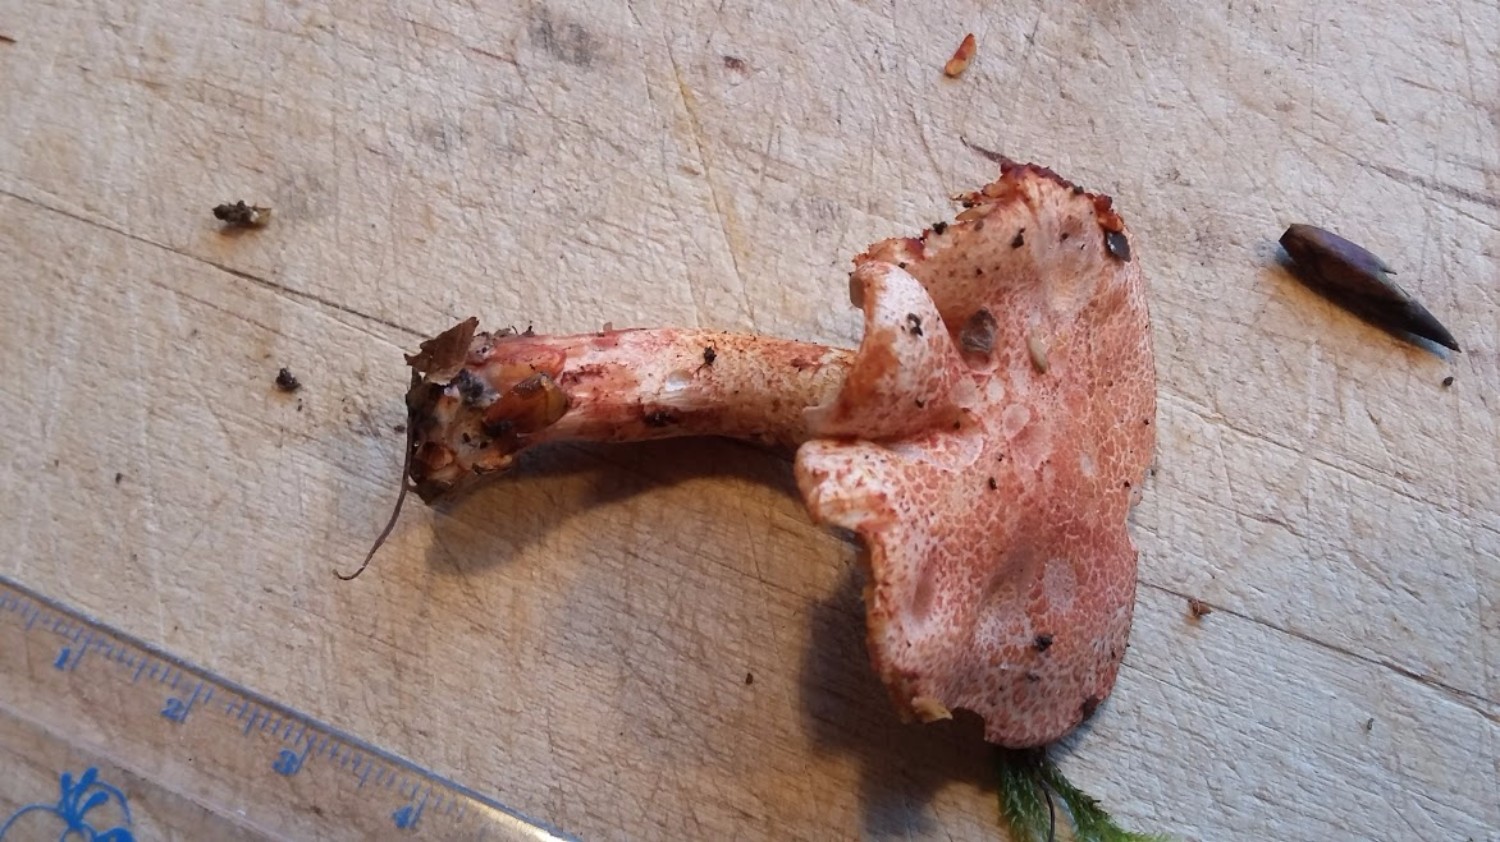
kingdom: Fungi
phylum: Basidiomycota
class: Agaricomycetes
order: Agaricales
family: Cortinariaceae
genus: Cortinarius
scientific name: Cortinarius bolaris
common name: cinnoberskællet slørhat
